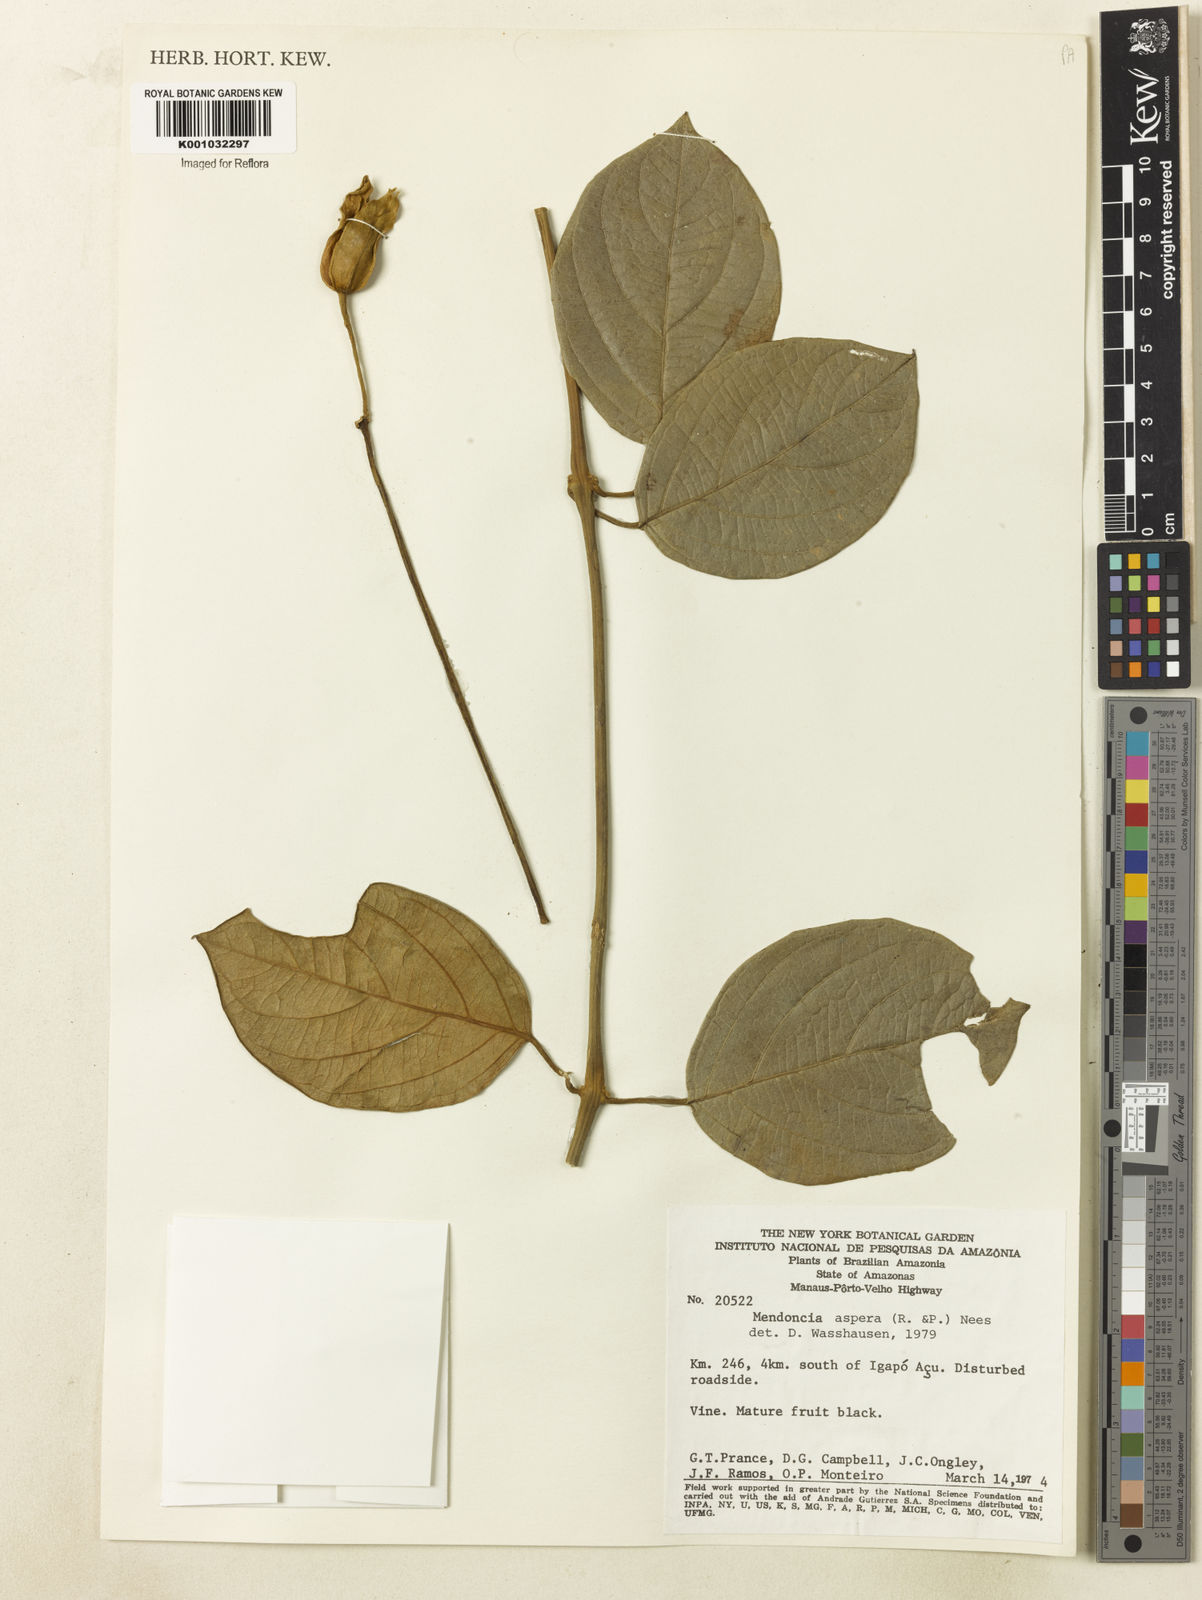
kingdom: Plantae
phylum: Tracheophyta
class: Magnoliopsida
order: Lamiales
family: Acanthaceae
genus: Mendoncia
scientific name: Mendoncia
